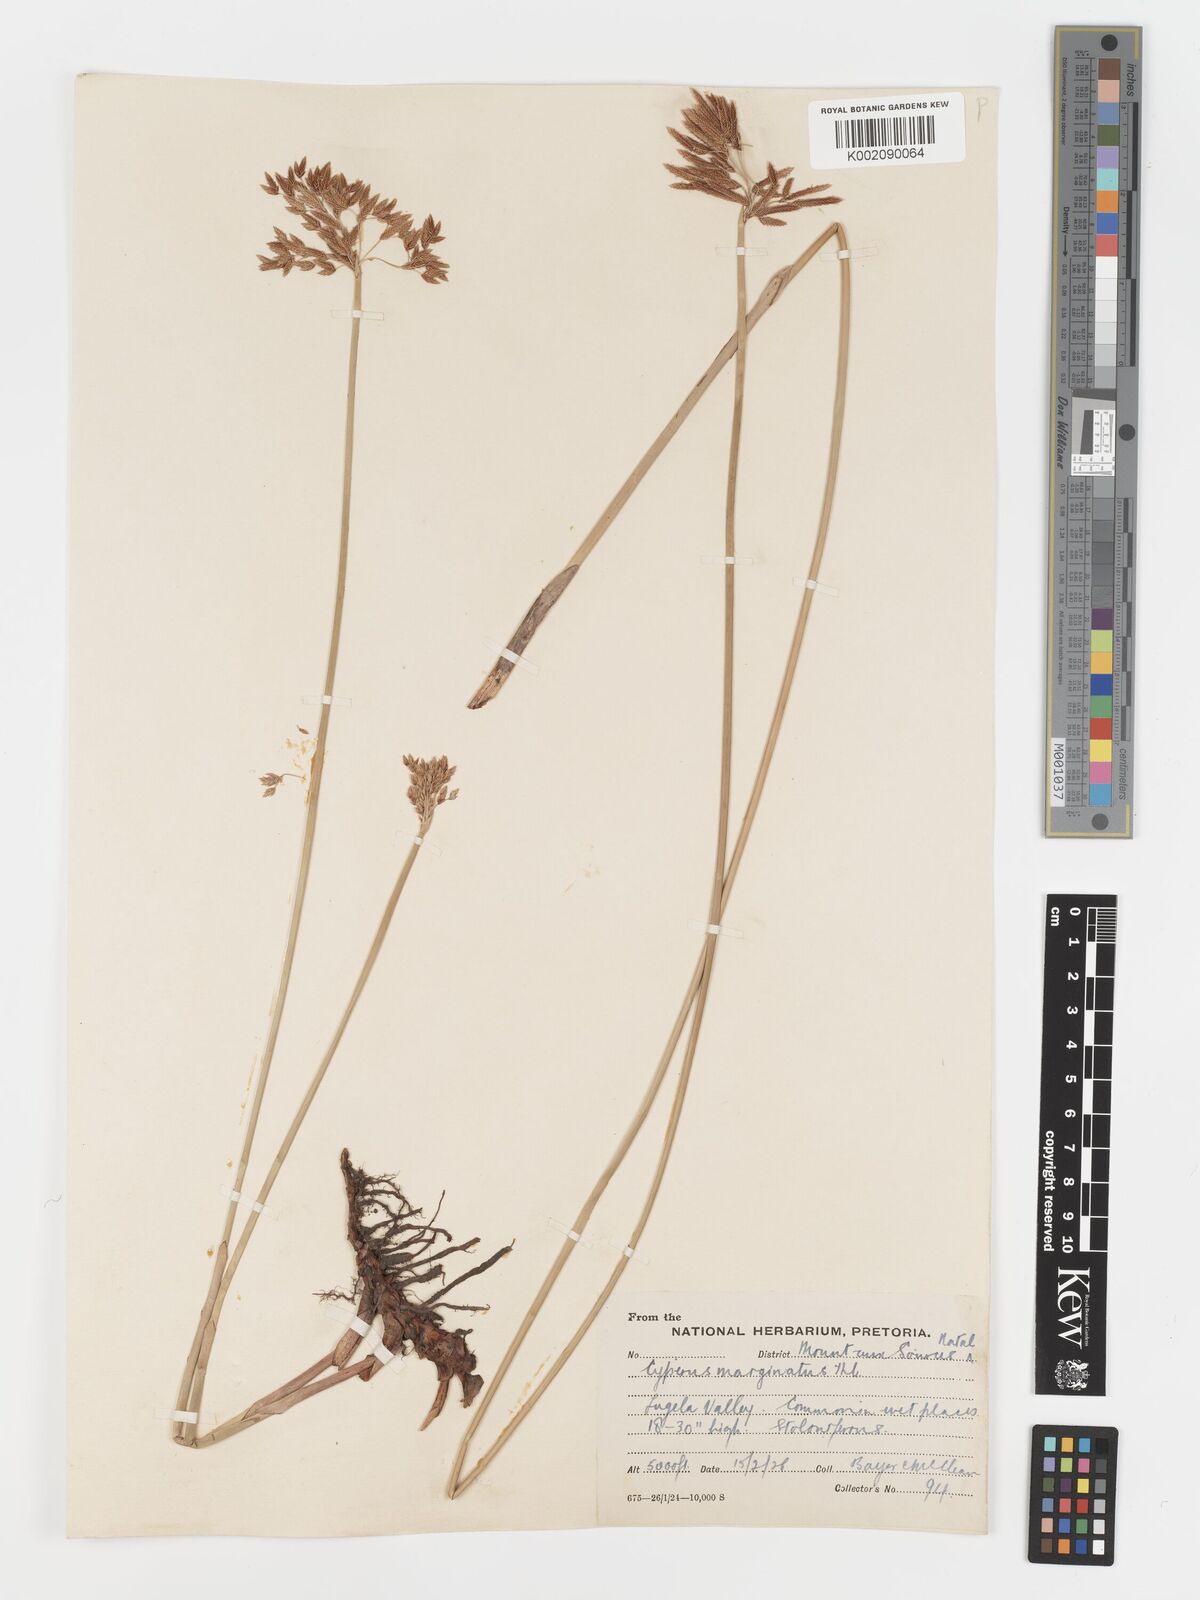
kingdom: Plantae
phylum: Tracheophyta
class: Liliopsida
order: Poales
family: Cyperaceae
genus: Cyperus
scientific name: Cyperus marginatus
